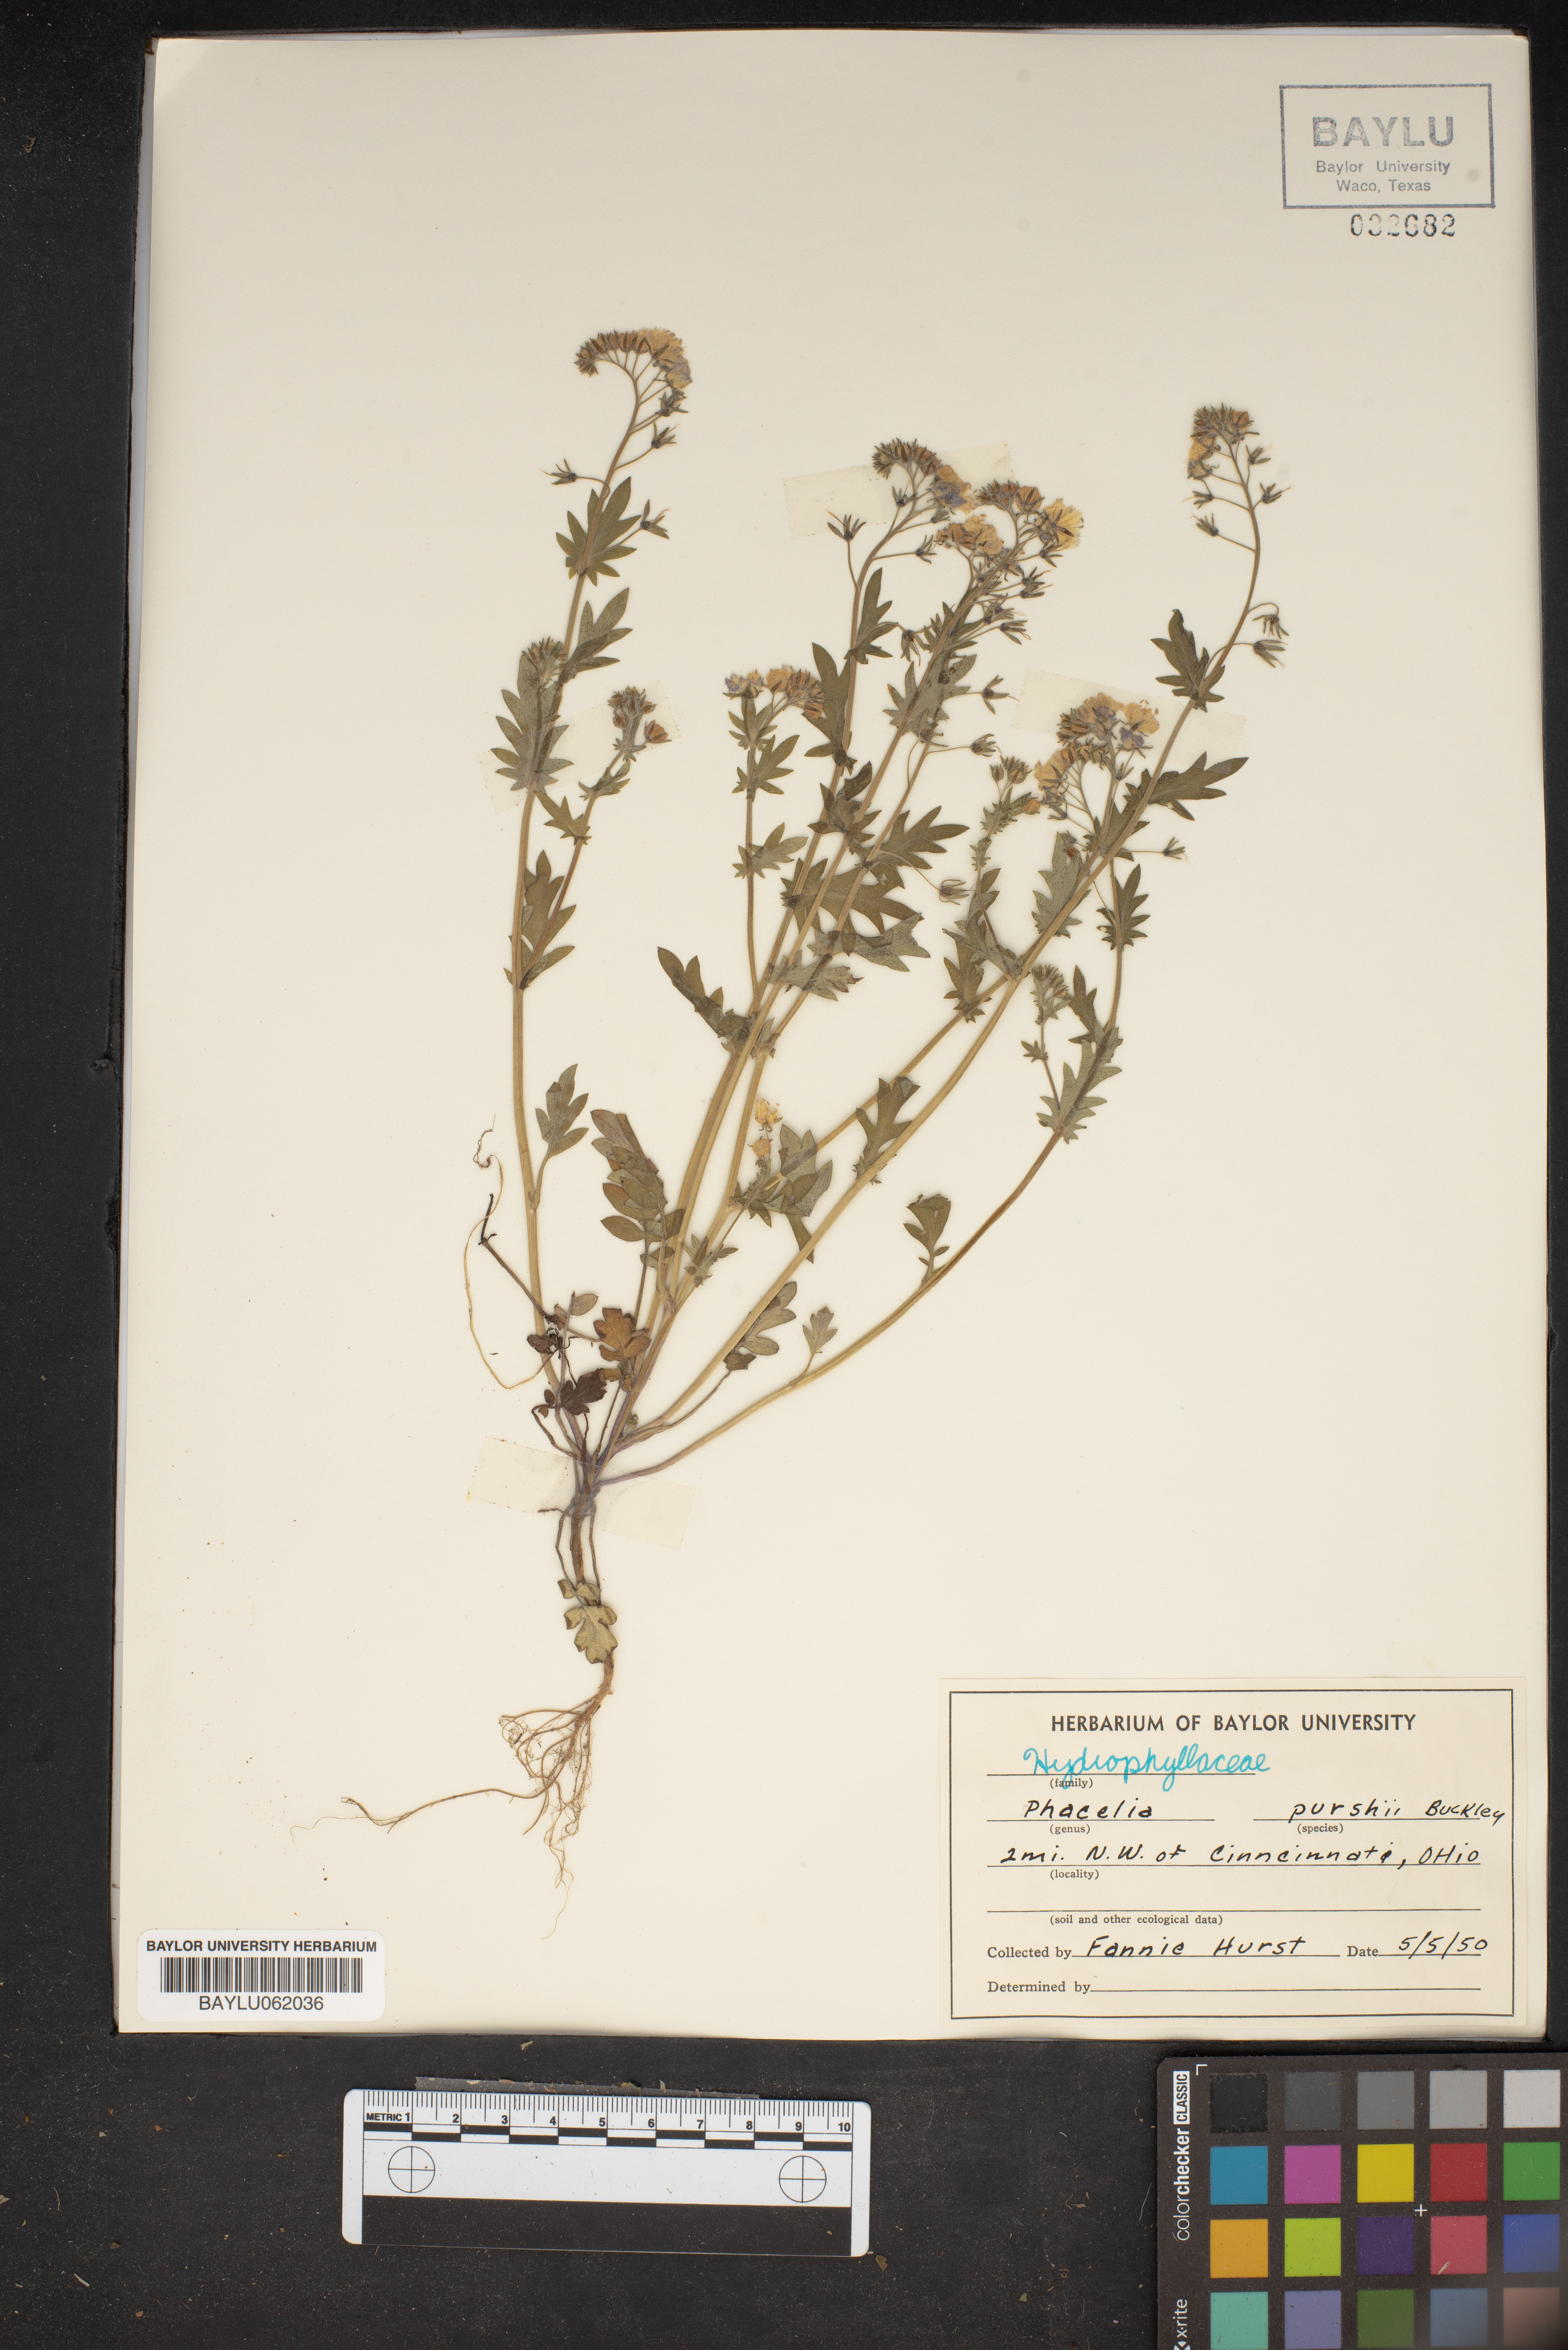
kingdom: Plantae
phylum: Tracheophyta
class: Magnoliopsida
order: Boraginales
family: Hydrophyllaceae
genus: Phacelia
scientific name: Phacelia purshii
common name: Miami-mist
